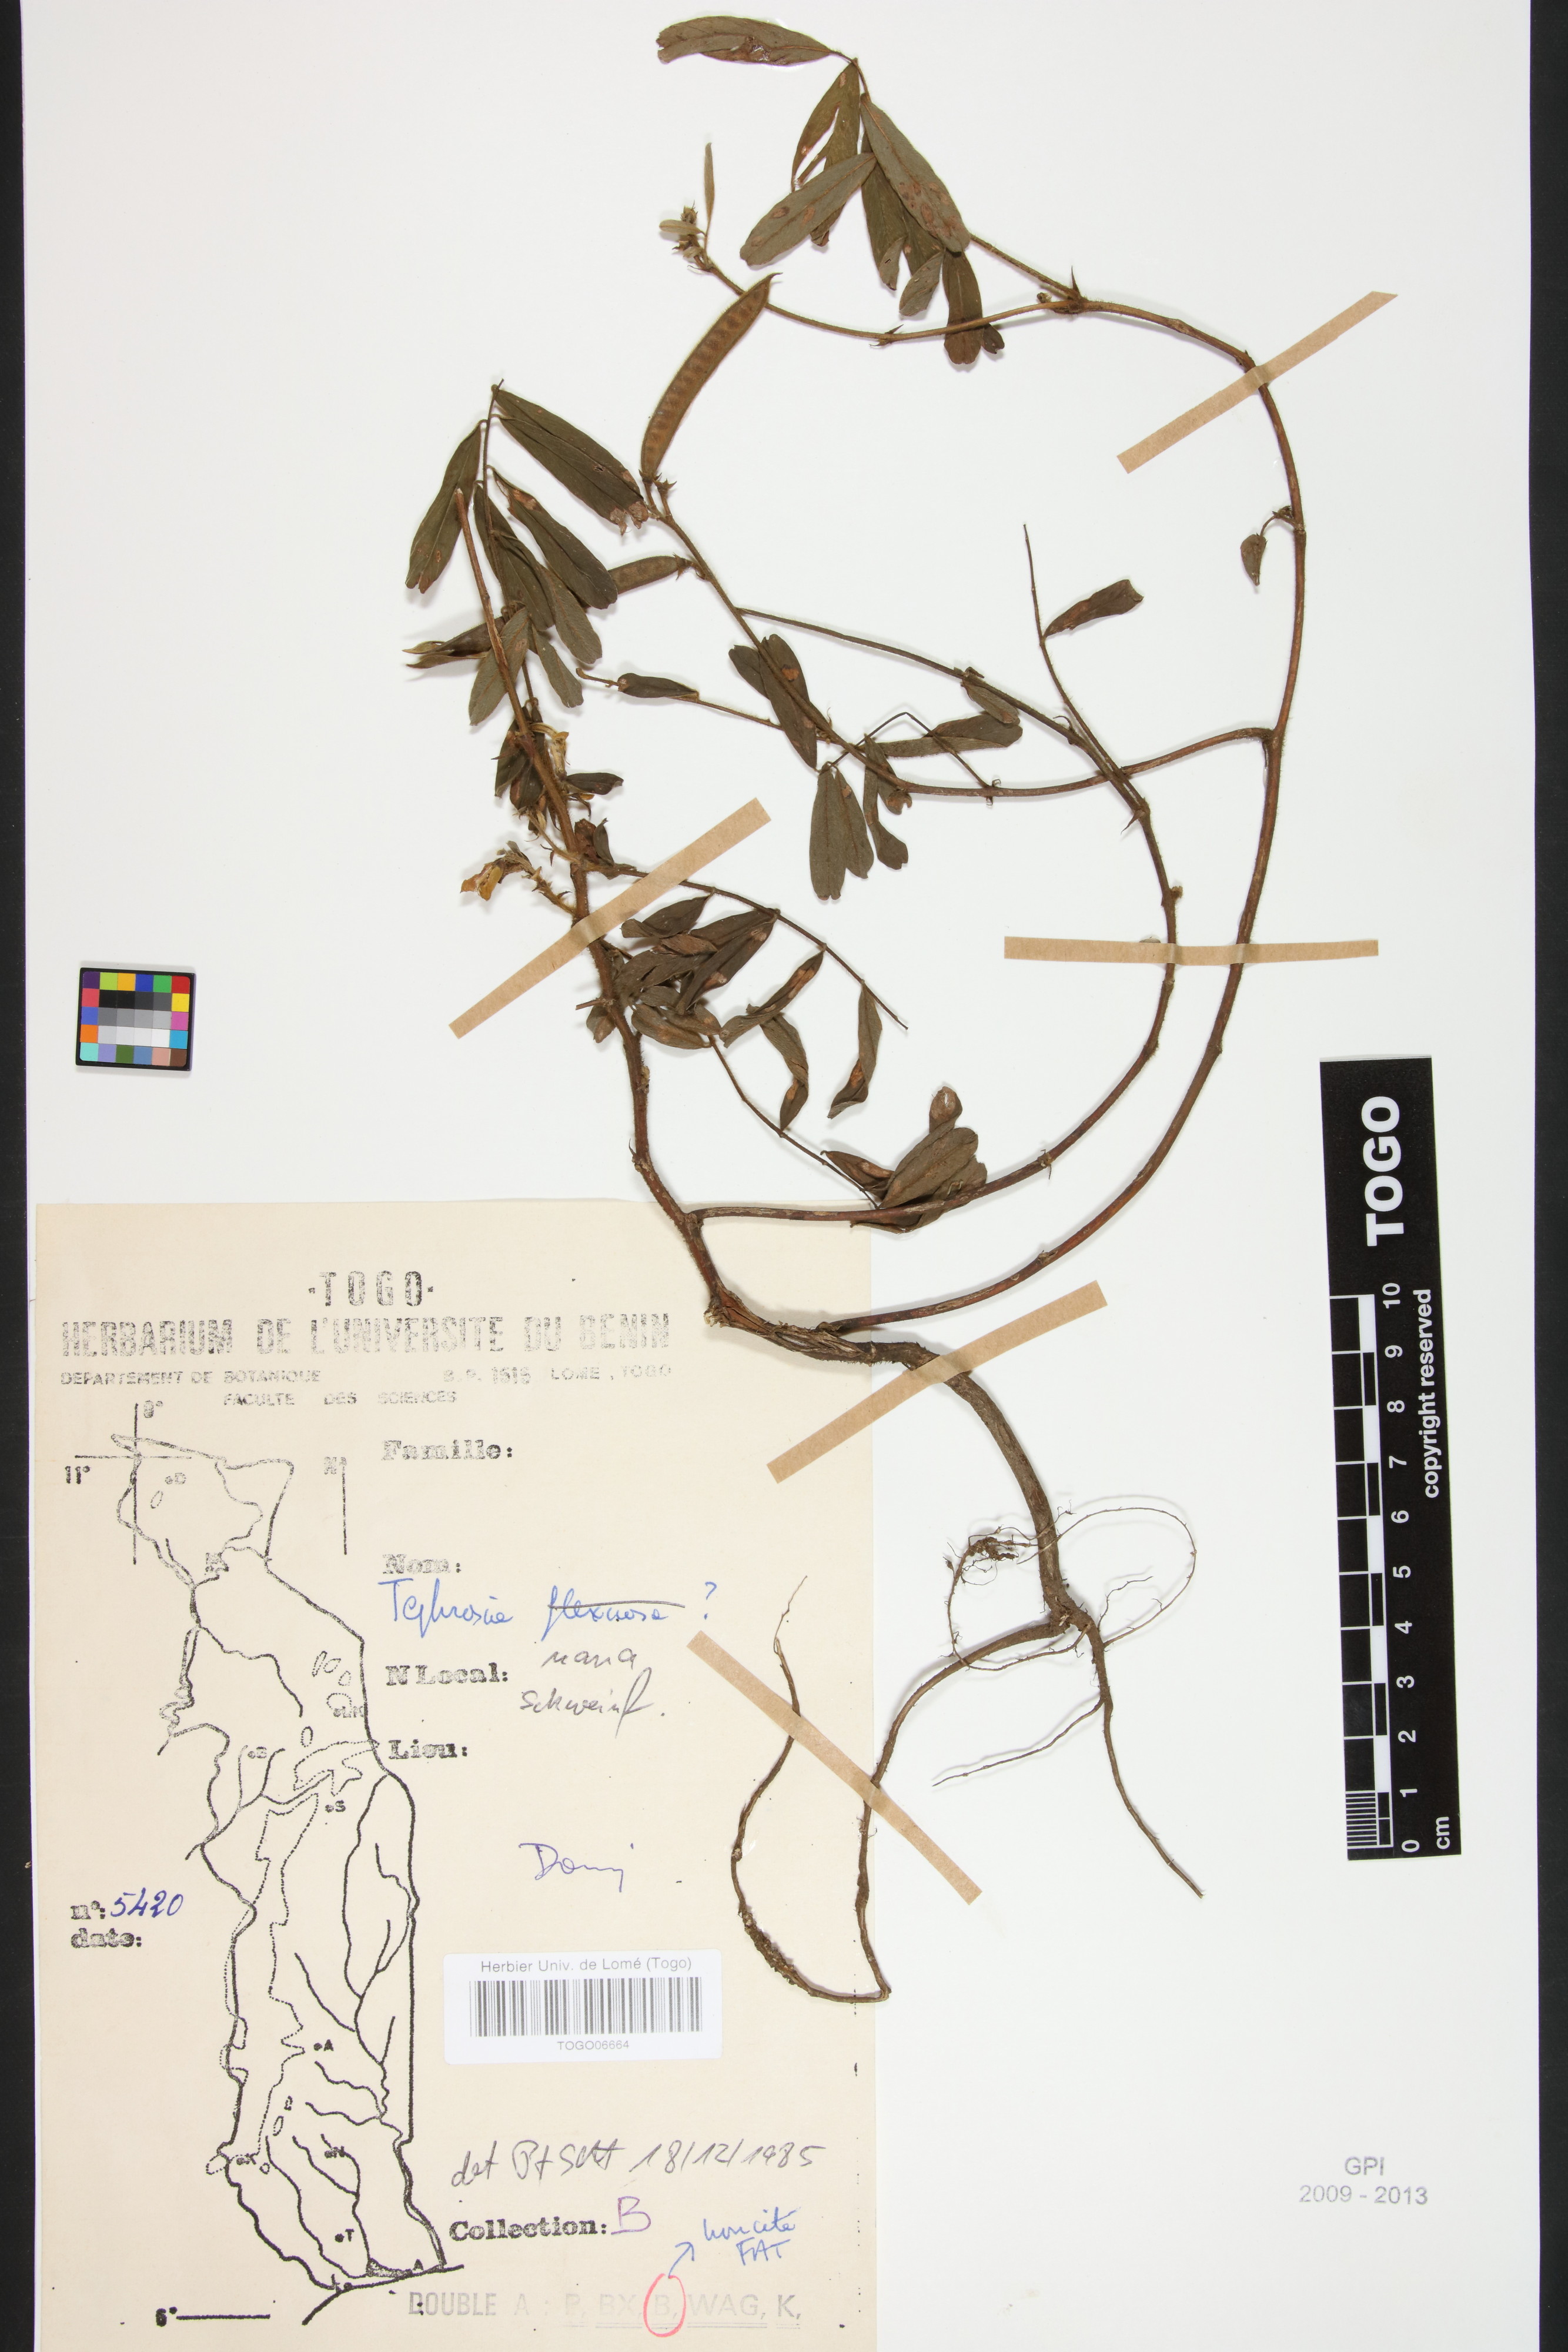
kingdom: Plantae
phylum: Tracheophyta
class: Magnoliopsida
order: Fabales
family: Fabaceae
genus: Tephrosia
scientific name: Tephrosia nana
